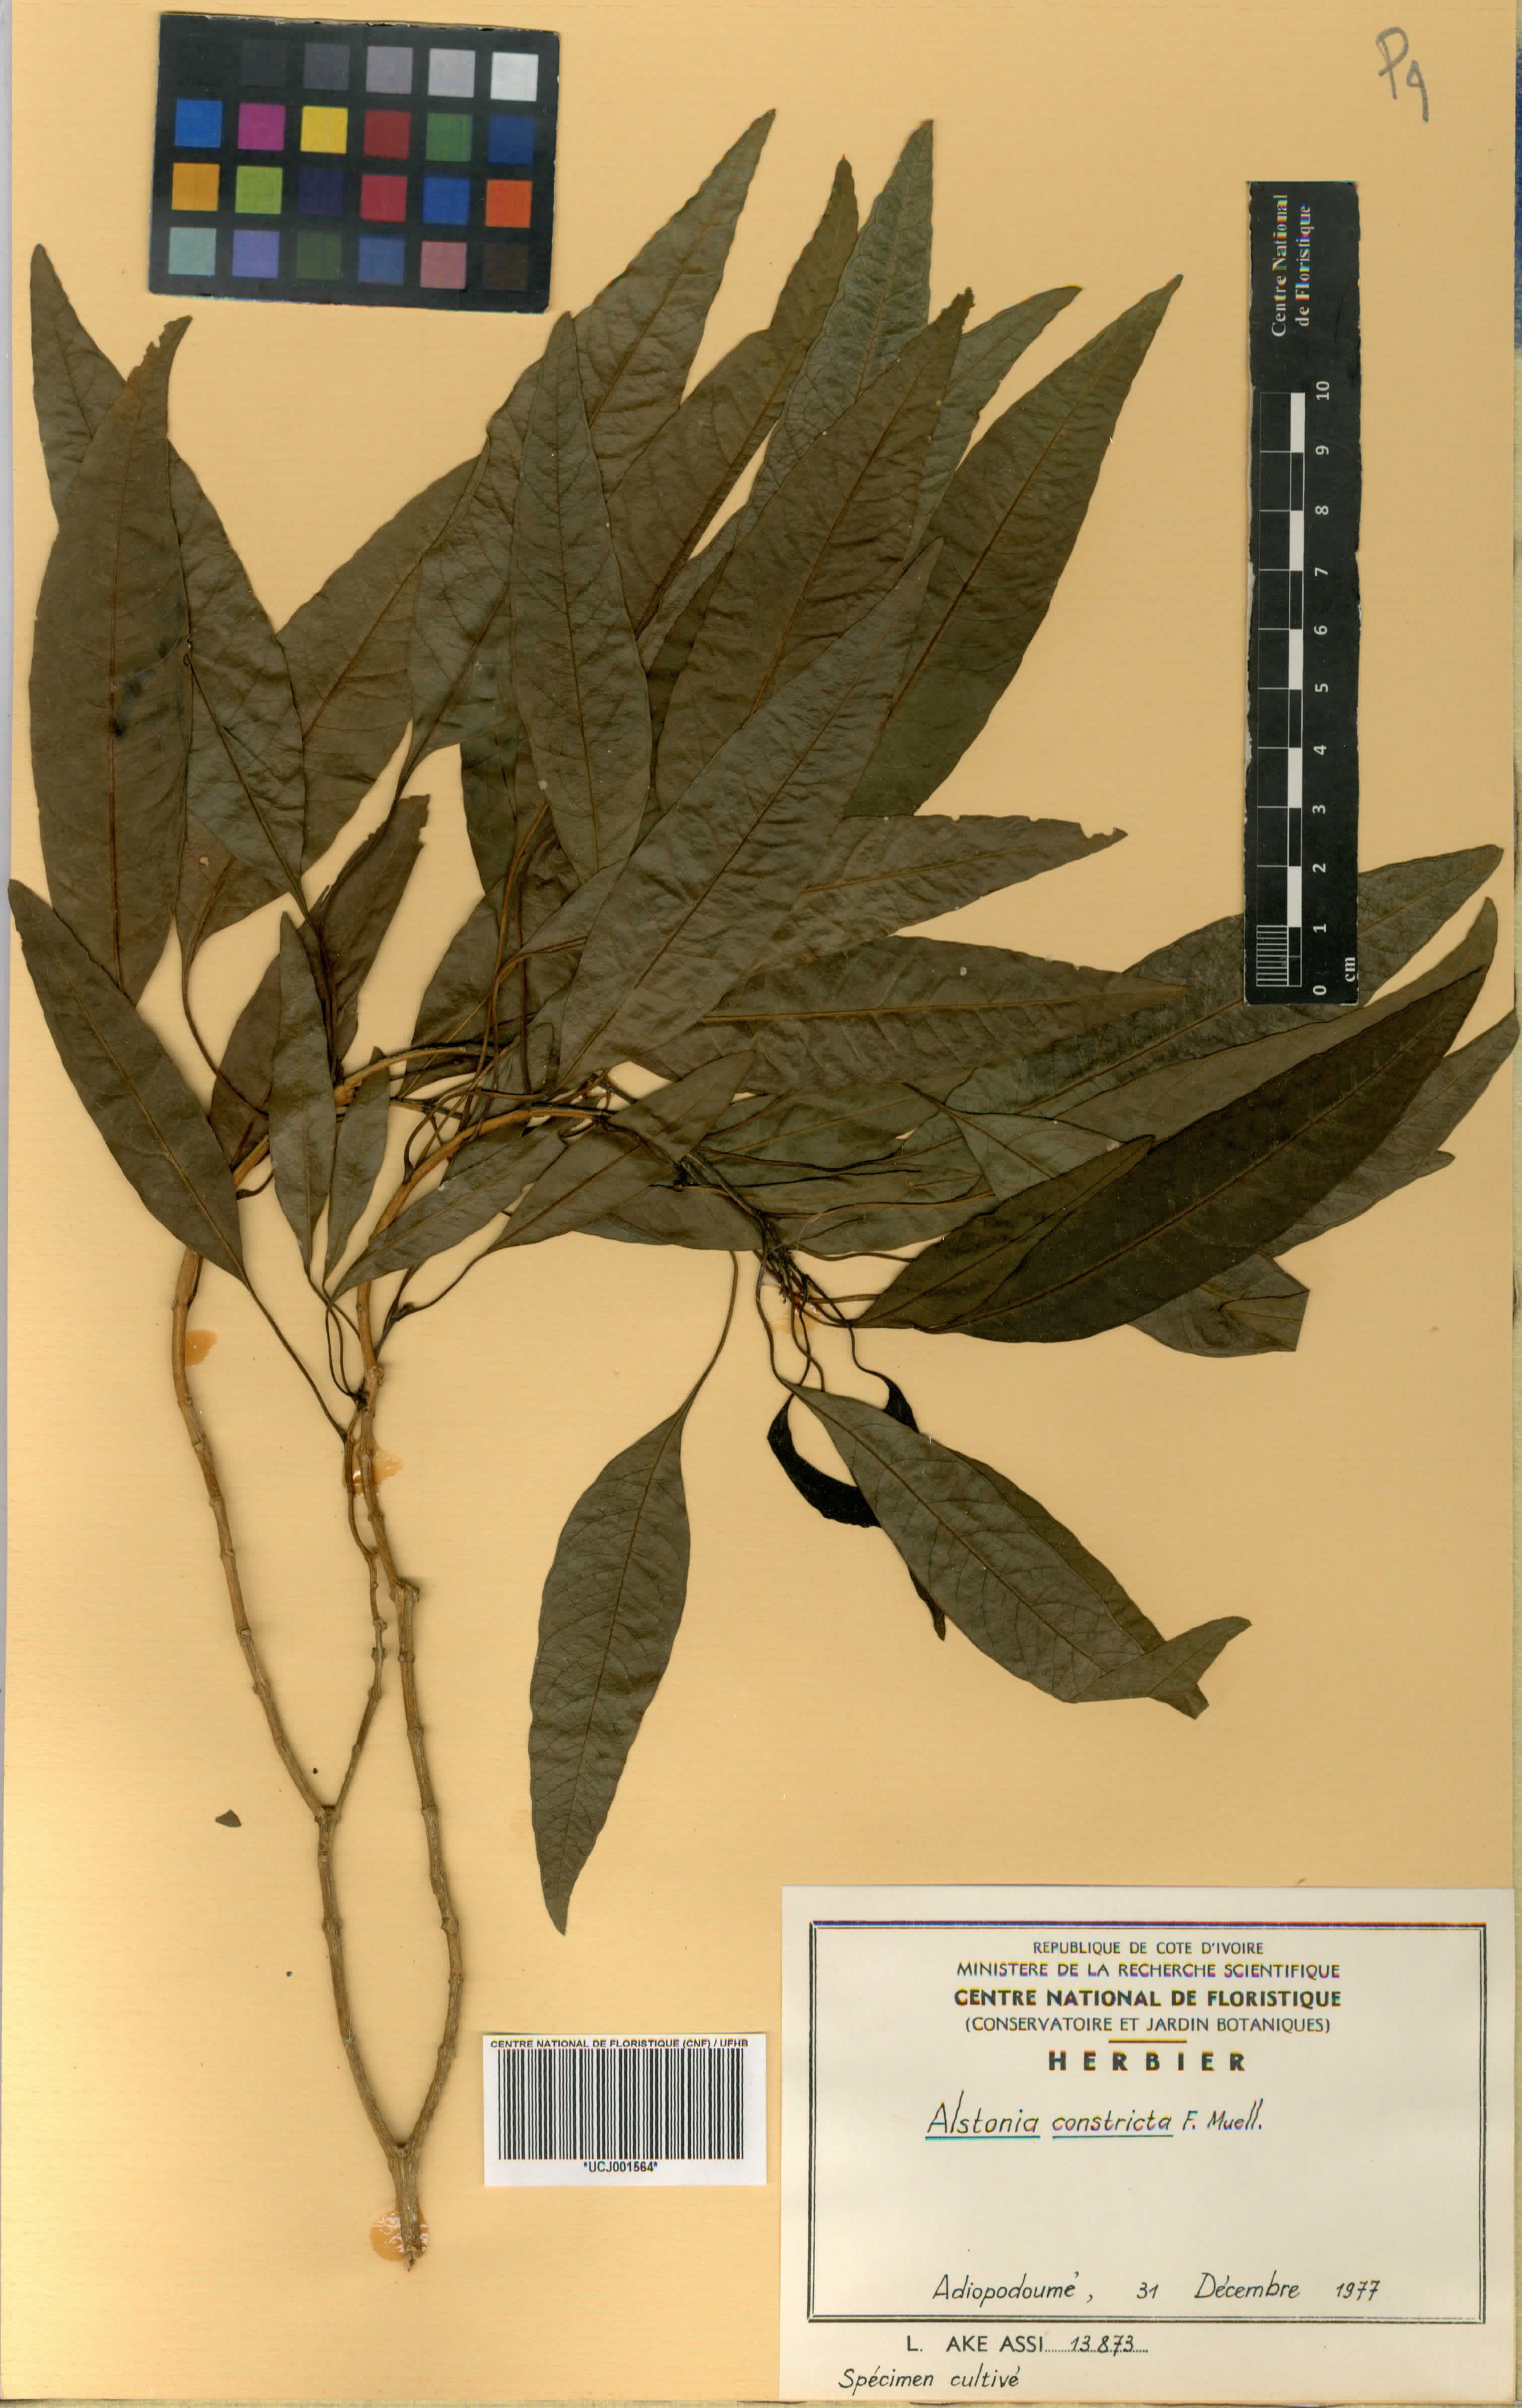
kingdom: Plantae
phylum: Tracheophyta
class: Magnoliopsida
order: Gentianales
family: Apocynaceae
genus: Alstonia
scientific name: Alstonia mollis
